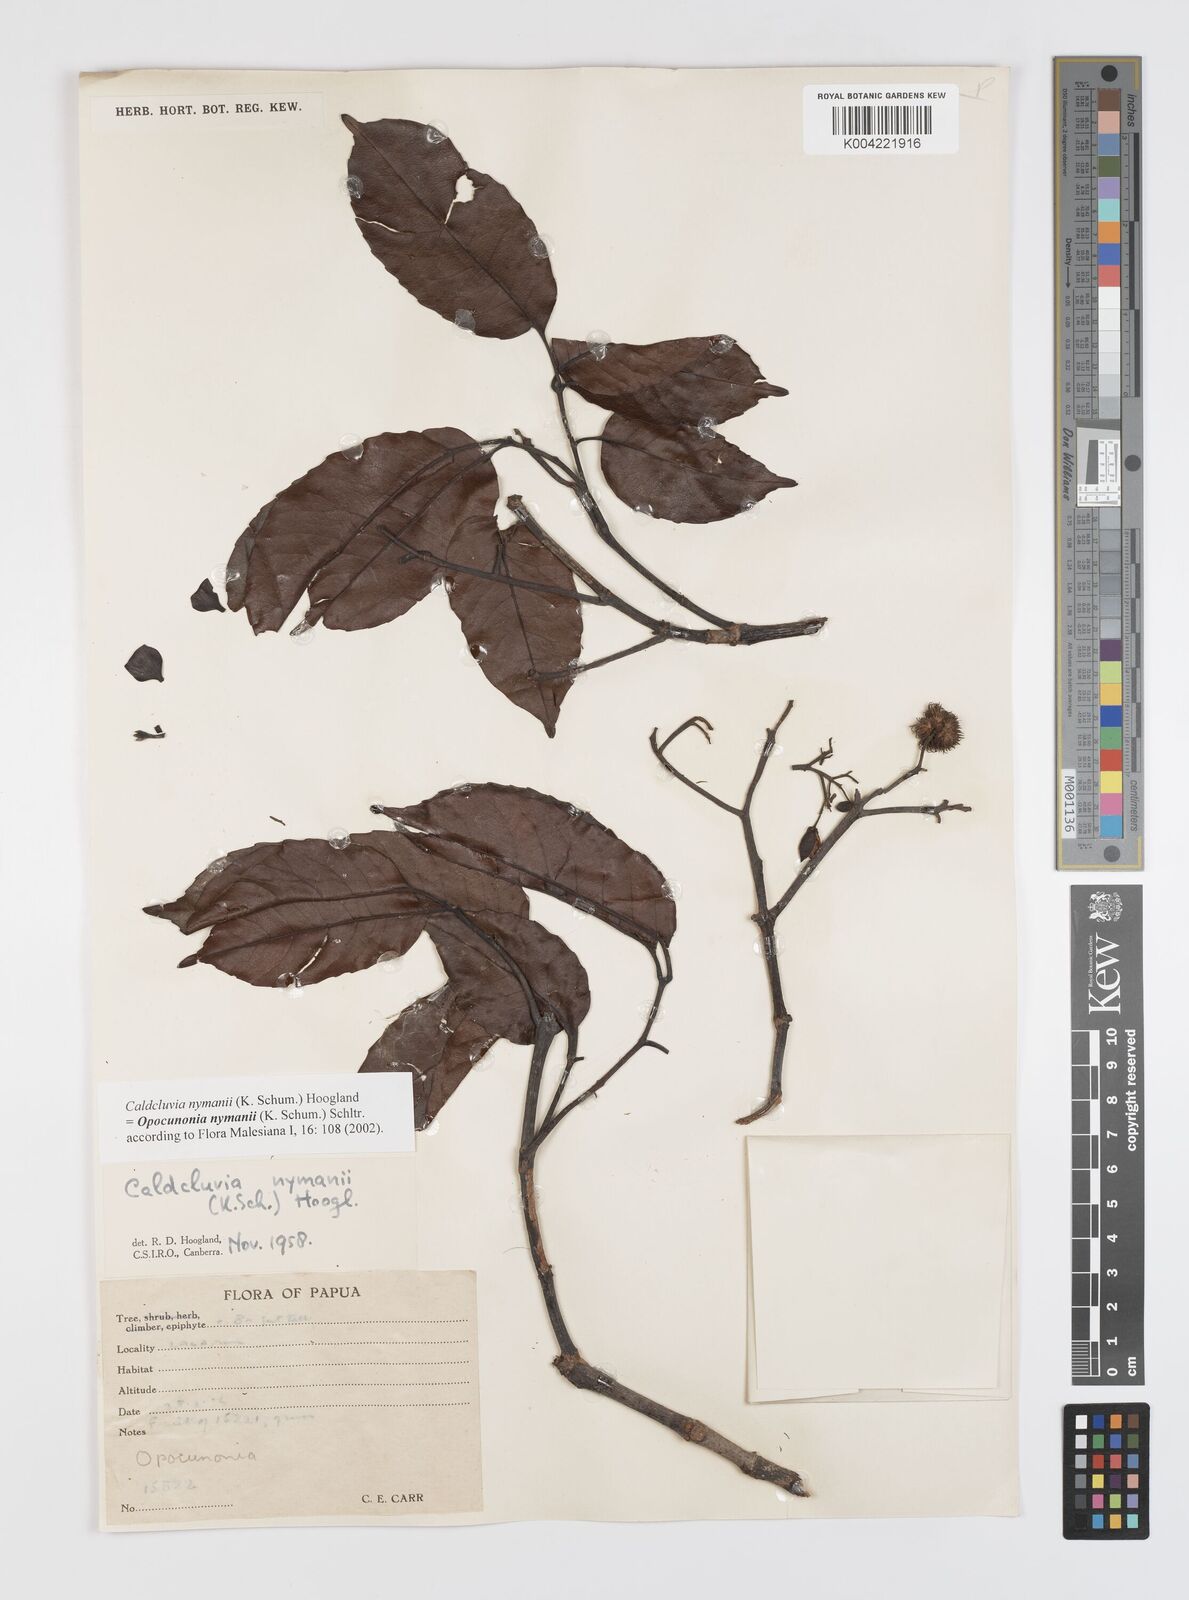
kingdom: Plantae
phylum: Tracheophyta
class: Magnoliopsida
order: Oxalidales
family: Cunoniaceae
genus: Opocunonia
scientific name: Opocunonia nymanii
